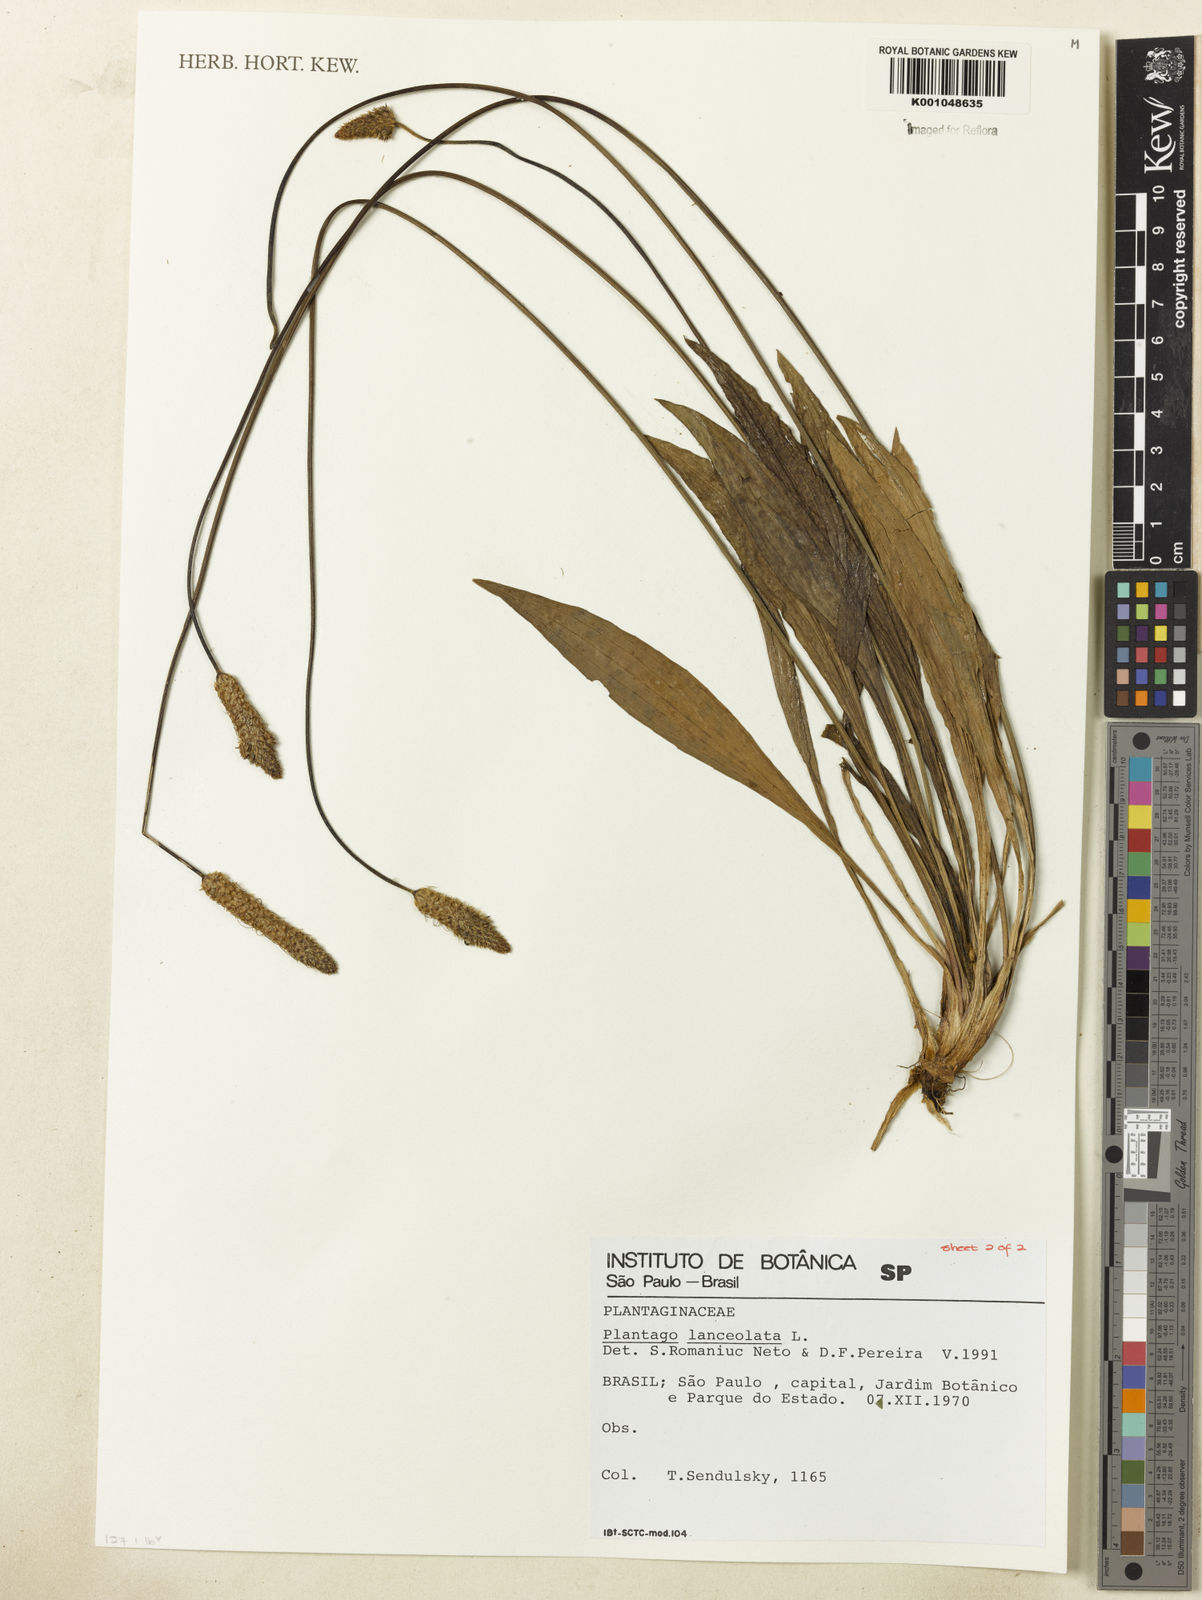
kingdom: Plantae
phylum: Tracheophyta
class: Magnoliopsida
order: Lamiales
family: Plantaginaceae
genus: Plantago
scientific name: Plantago lanceolata
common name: Ribwort plantain
